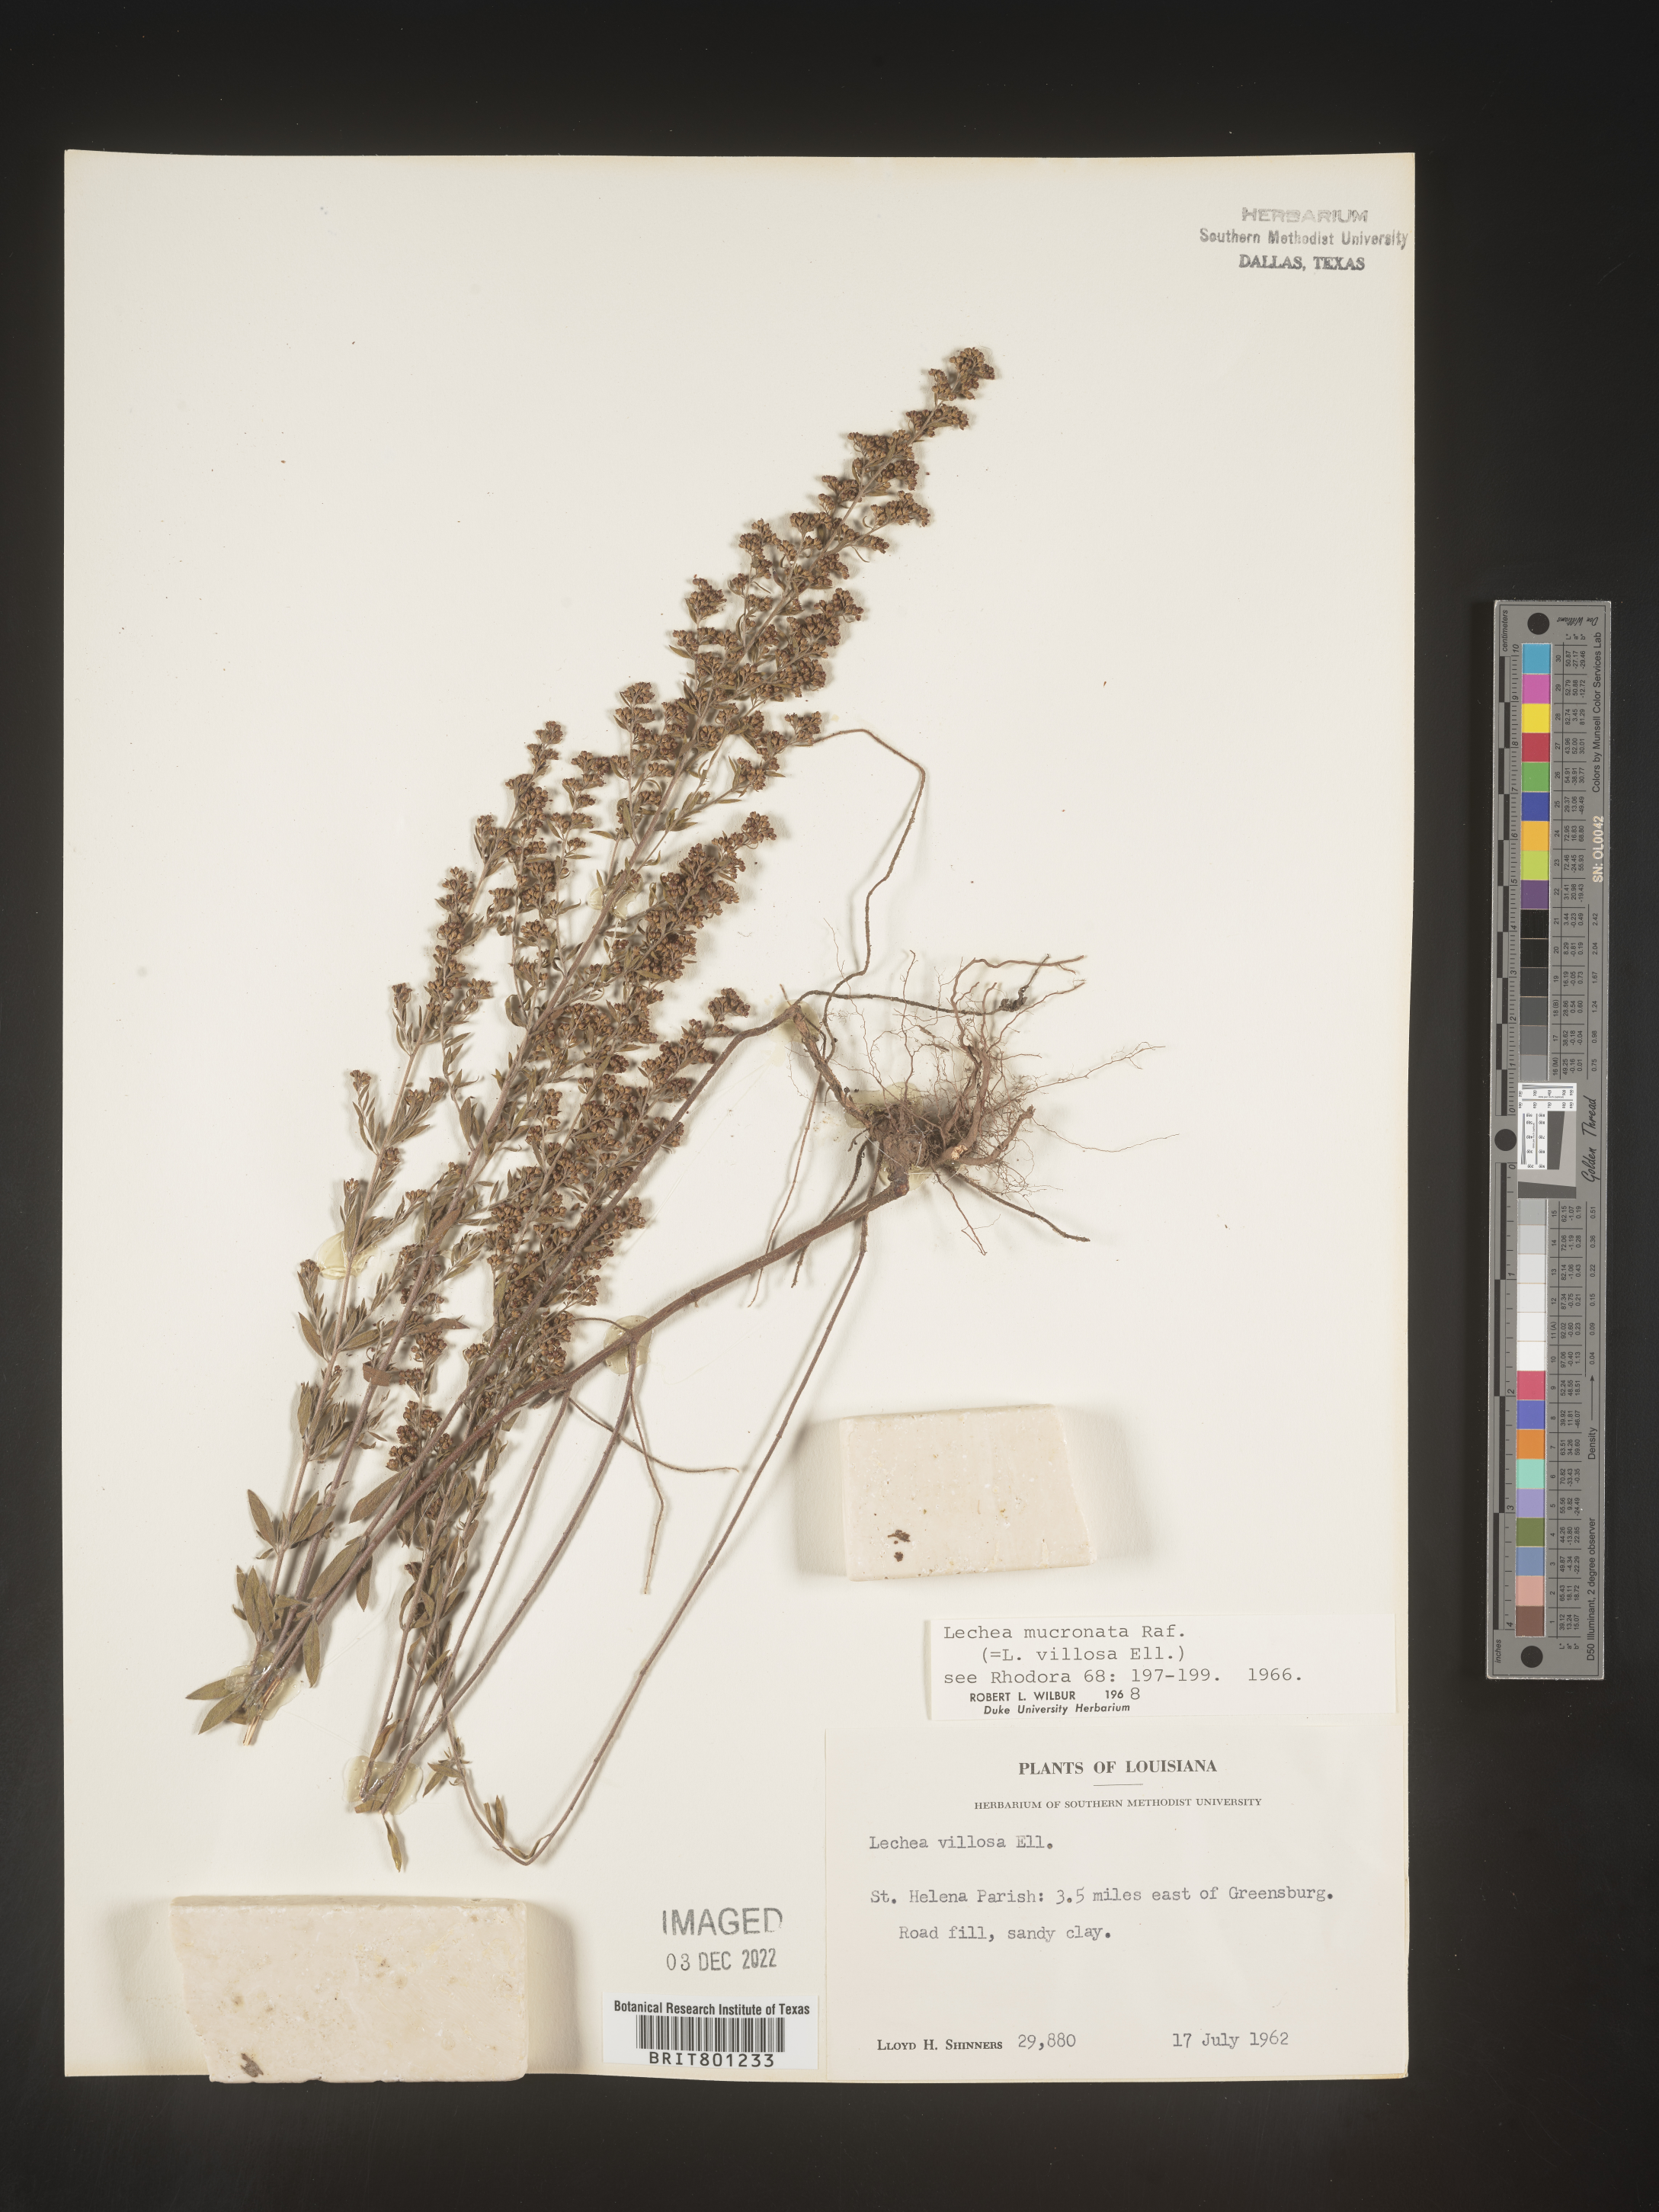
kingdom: Plantae
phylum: Tracheophyta
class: Magnoliopsida
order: Malvales
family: Cistaceae
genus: Lechea
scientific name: Lechea mucronata
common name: Hairy pinweed
